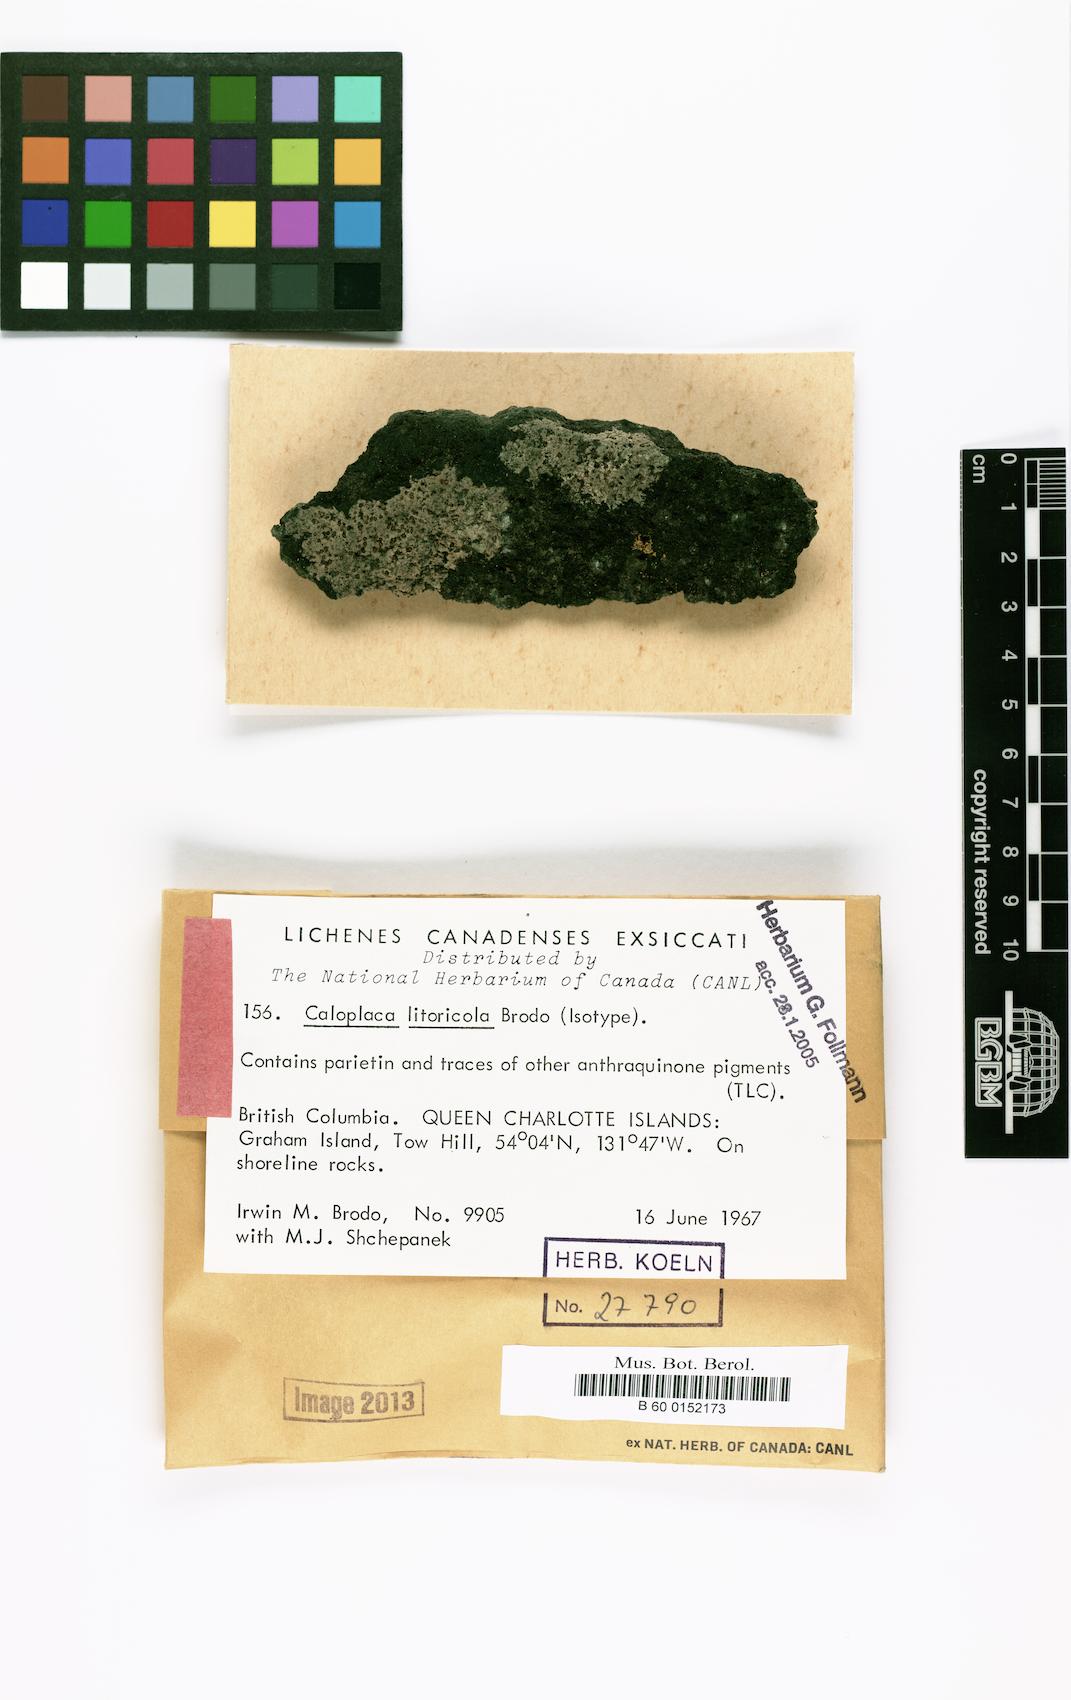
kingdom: Fungi
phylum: Ascomycota
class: Lecanoromycetes
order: Teloschistales
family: Teloschistaceae
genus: Caloplaca
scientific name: Caloplaca litoricola
